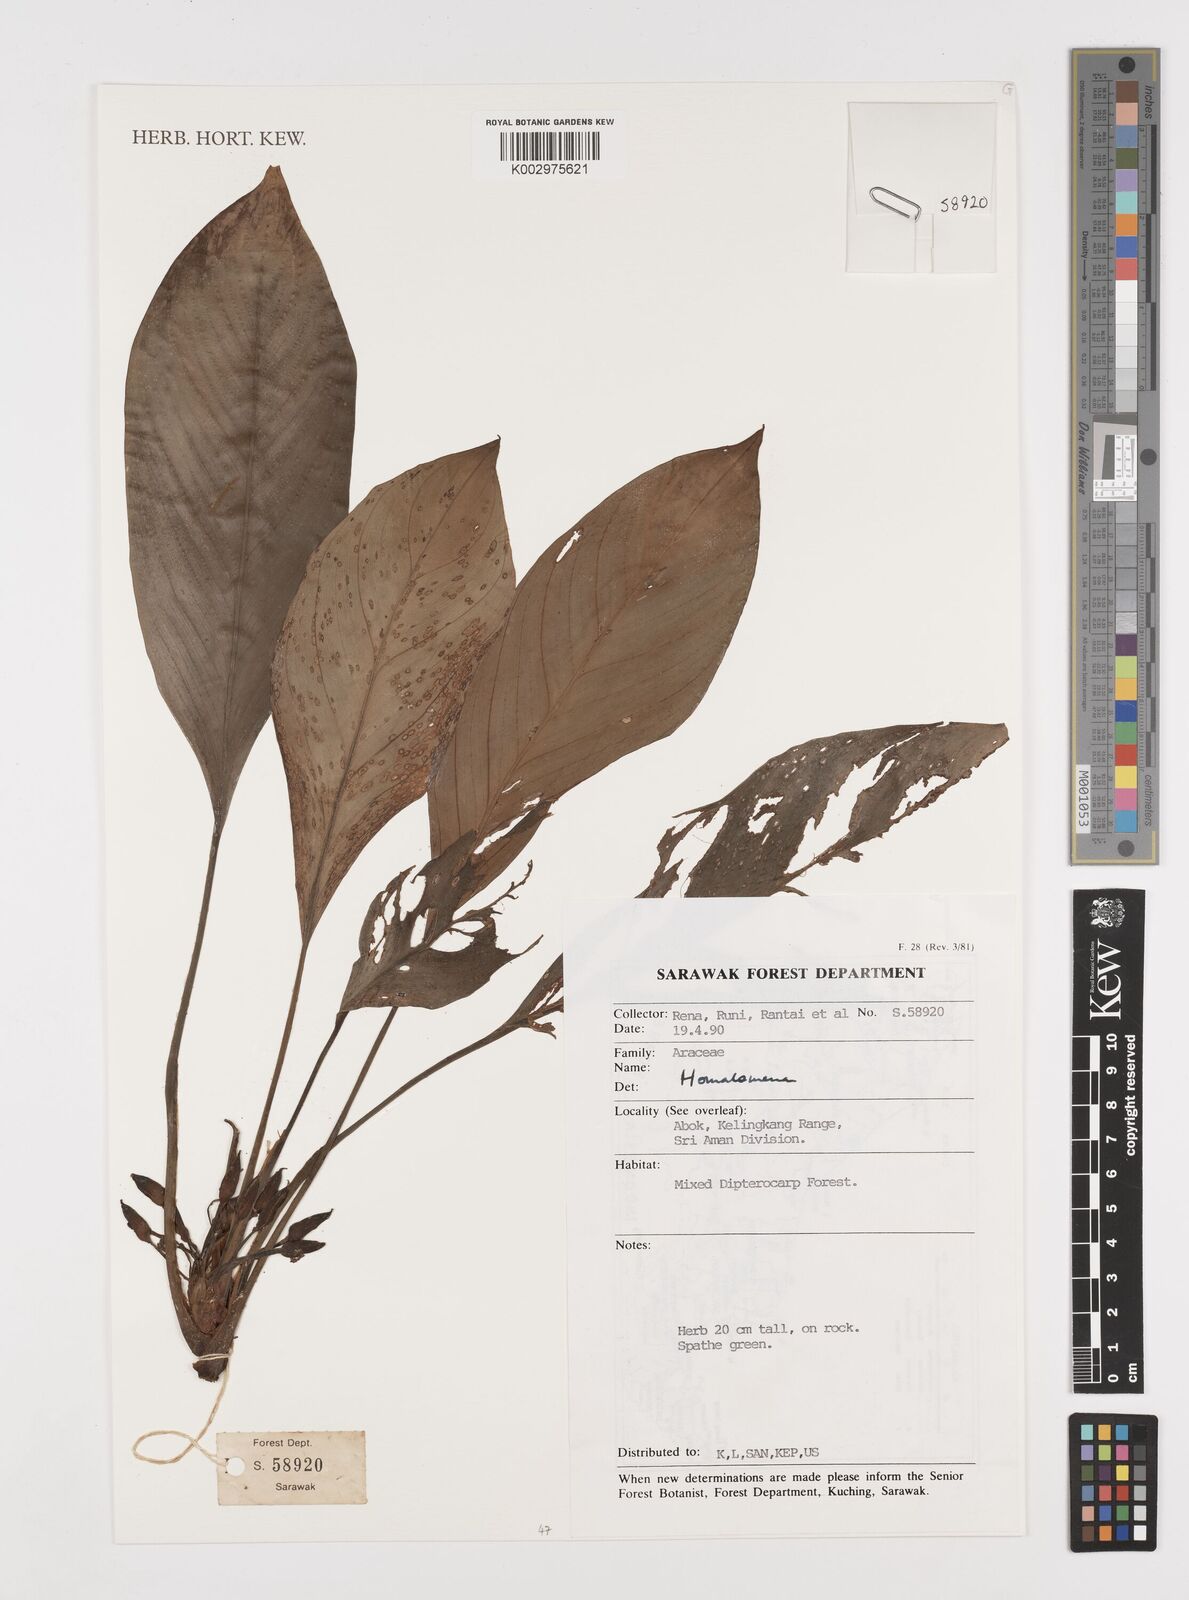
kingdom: Plantae
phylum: Tracheophyta
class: Liliopsida
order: Alismatales
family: Araceae
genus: Homalomena
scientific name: Homalomena
